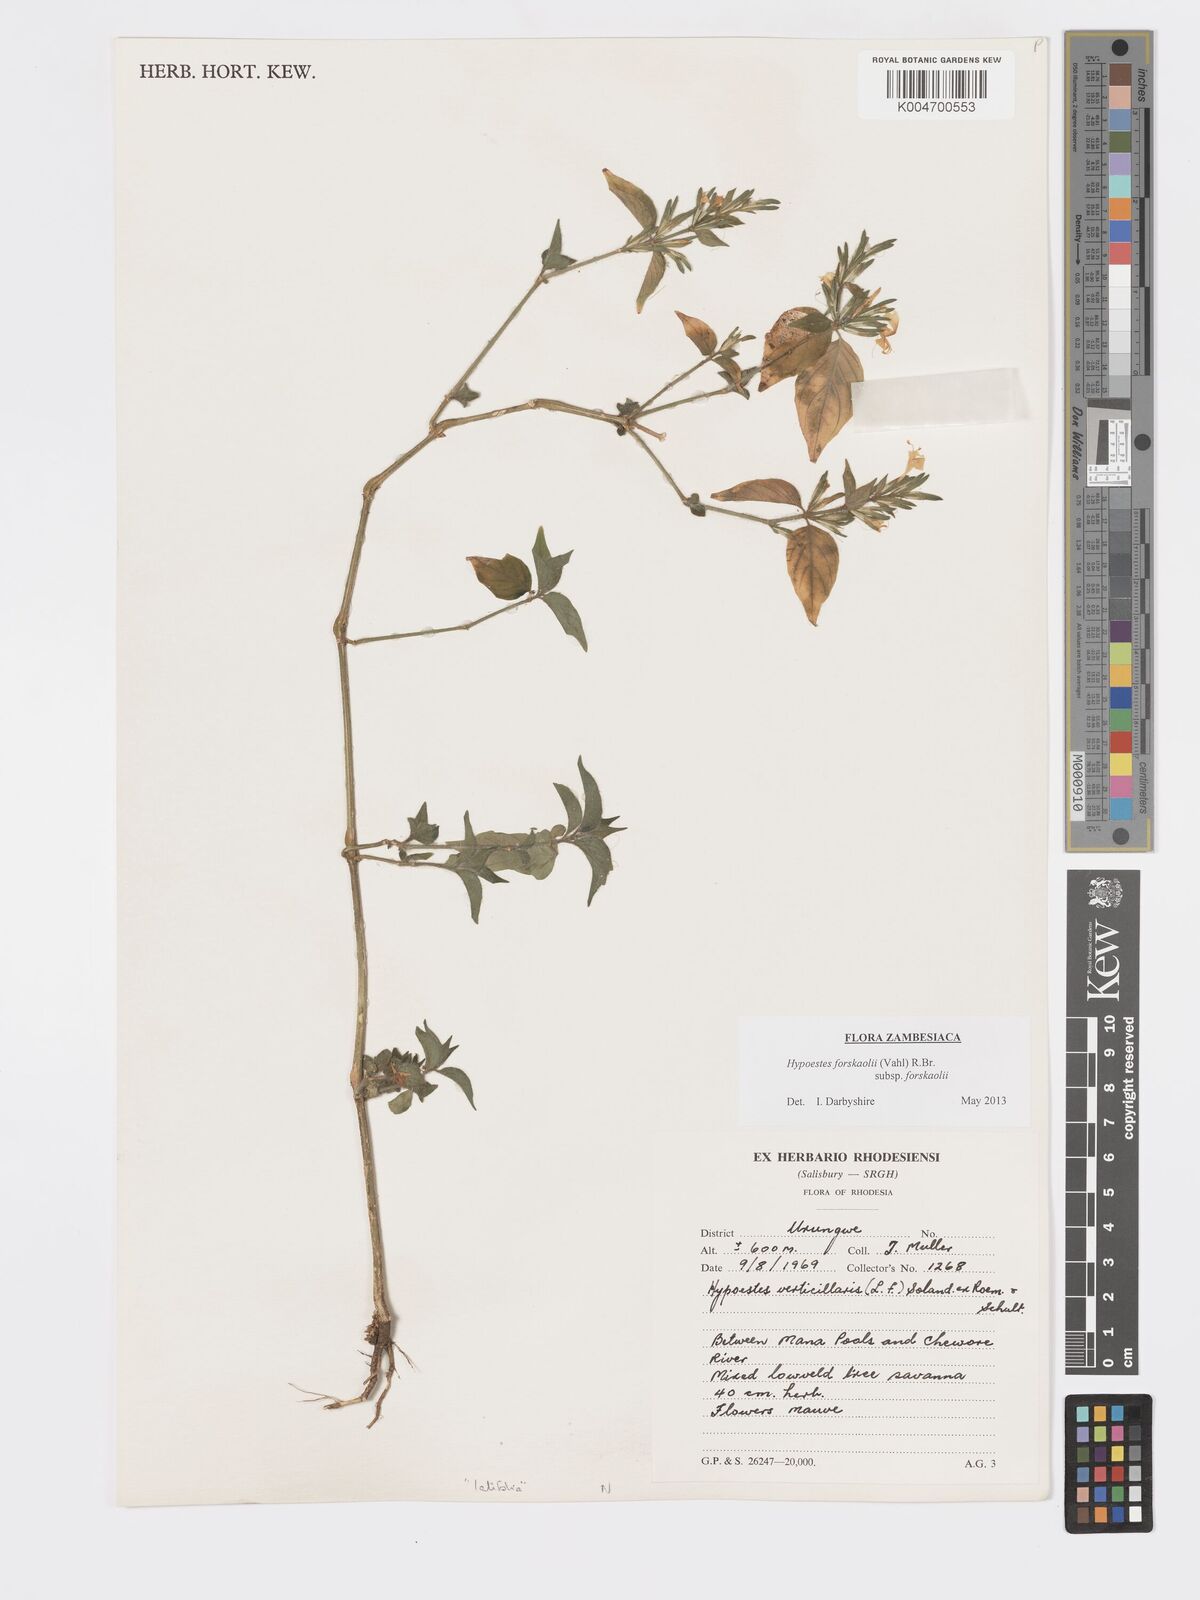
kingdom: Plantae
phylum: Tracheophyta
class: Magnoliopsida
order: Lamiales
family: Acanthaceae
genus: Hypoestes
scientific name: Hypoestes forskaolii
